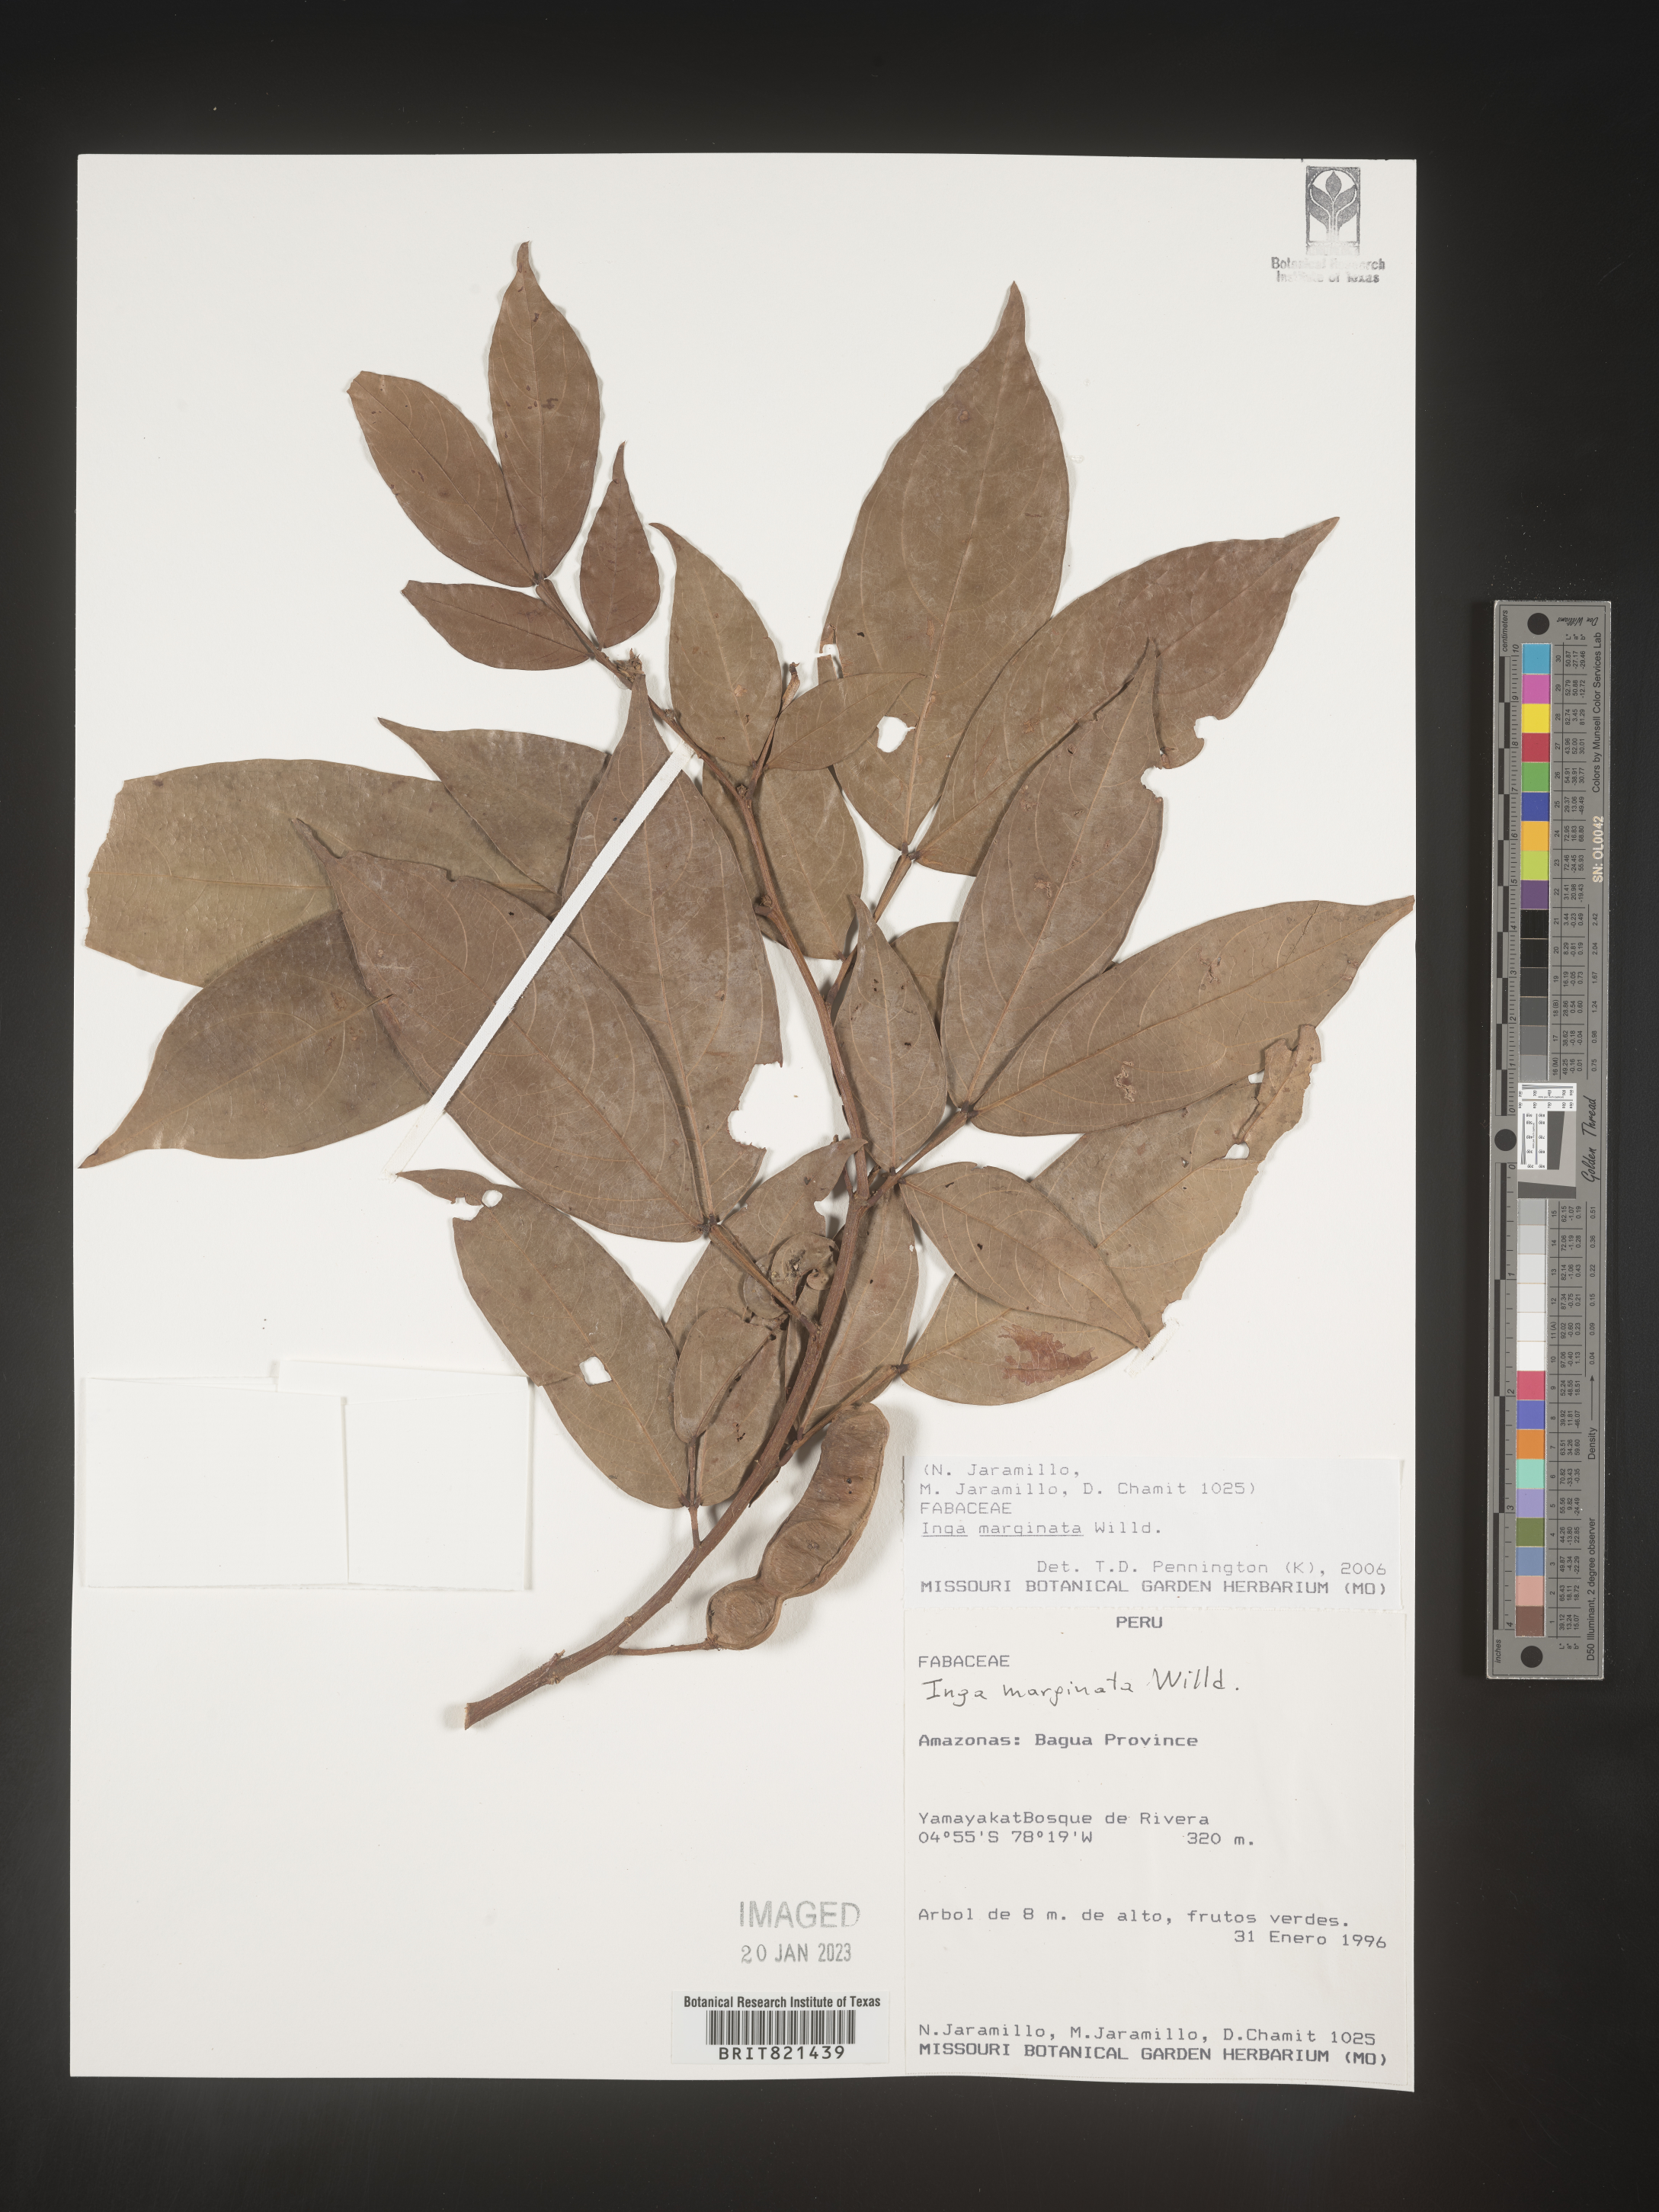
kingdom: Plantae
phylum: Tracheophyta
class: Magnoliopsida
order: Fabales
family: Fabaceae
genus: Inga
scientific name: Inga
